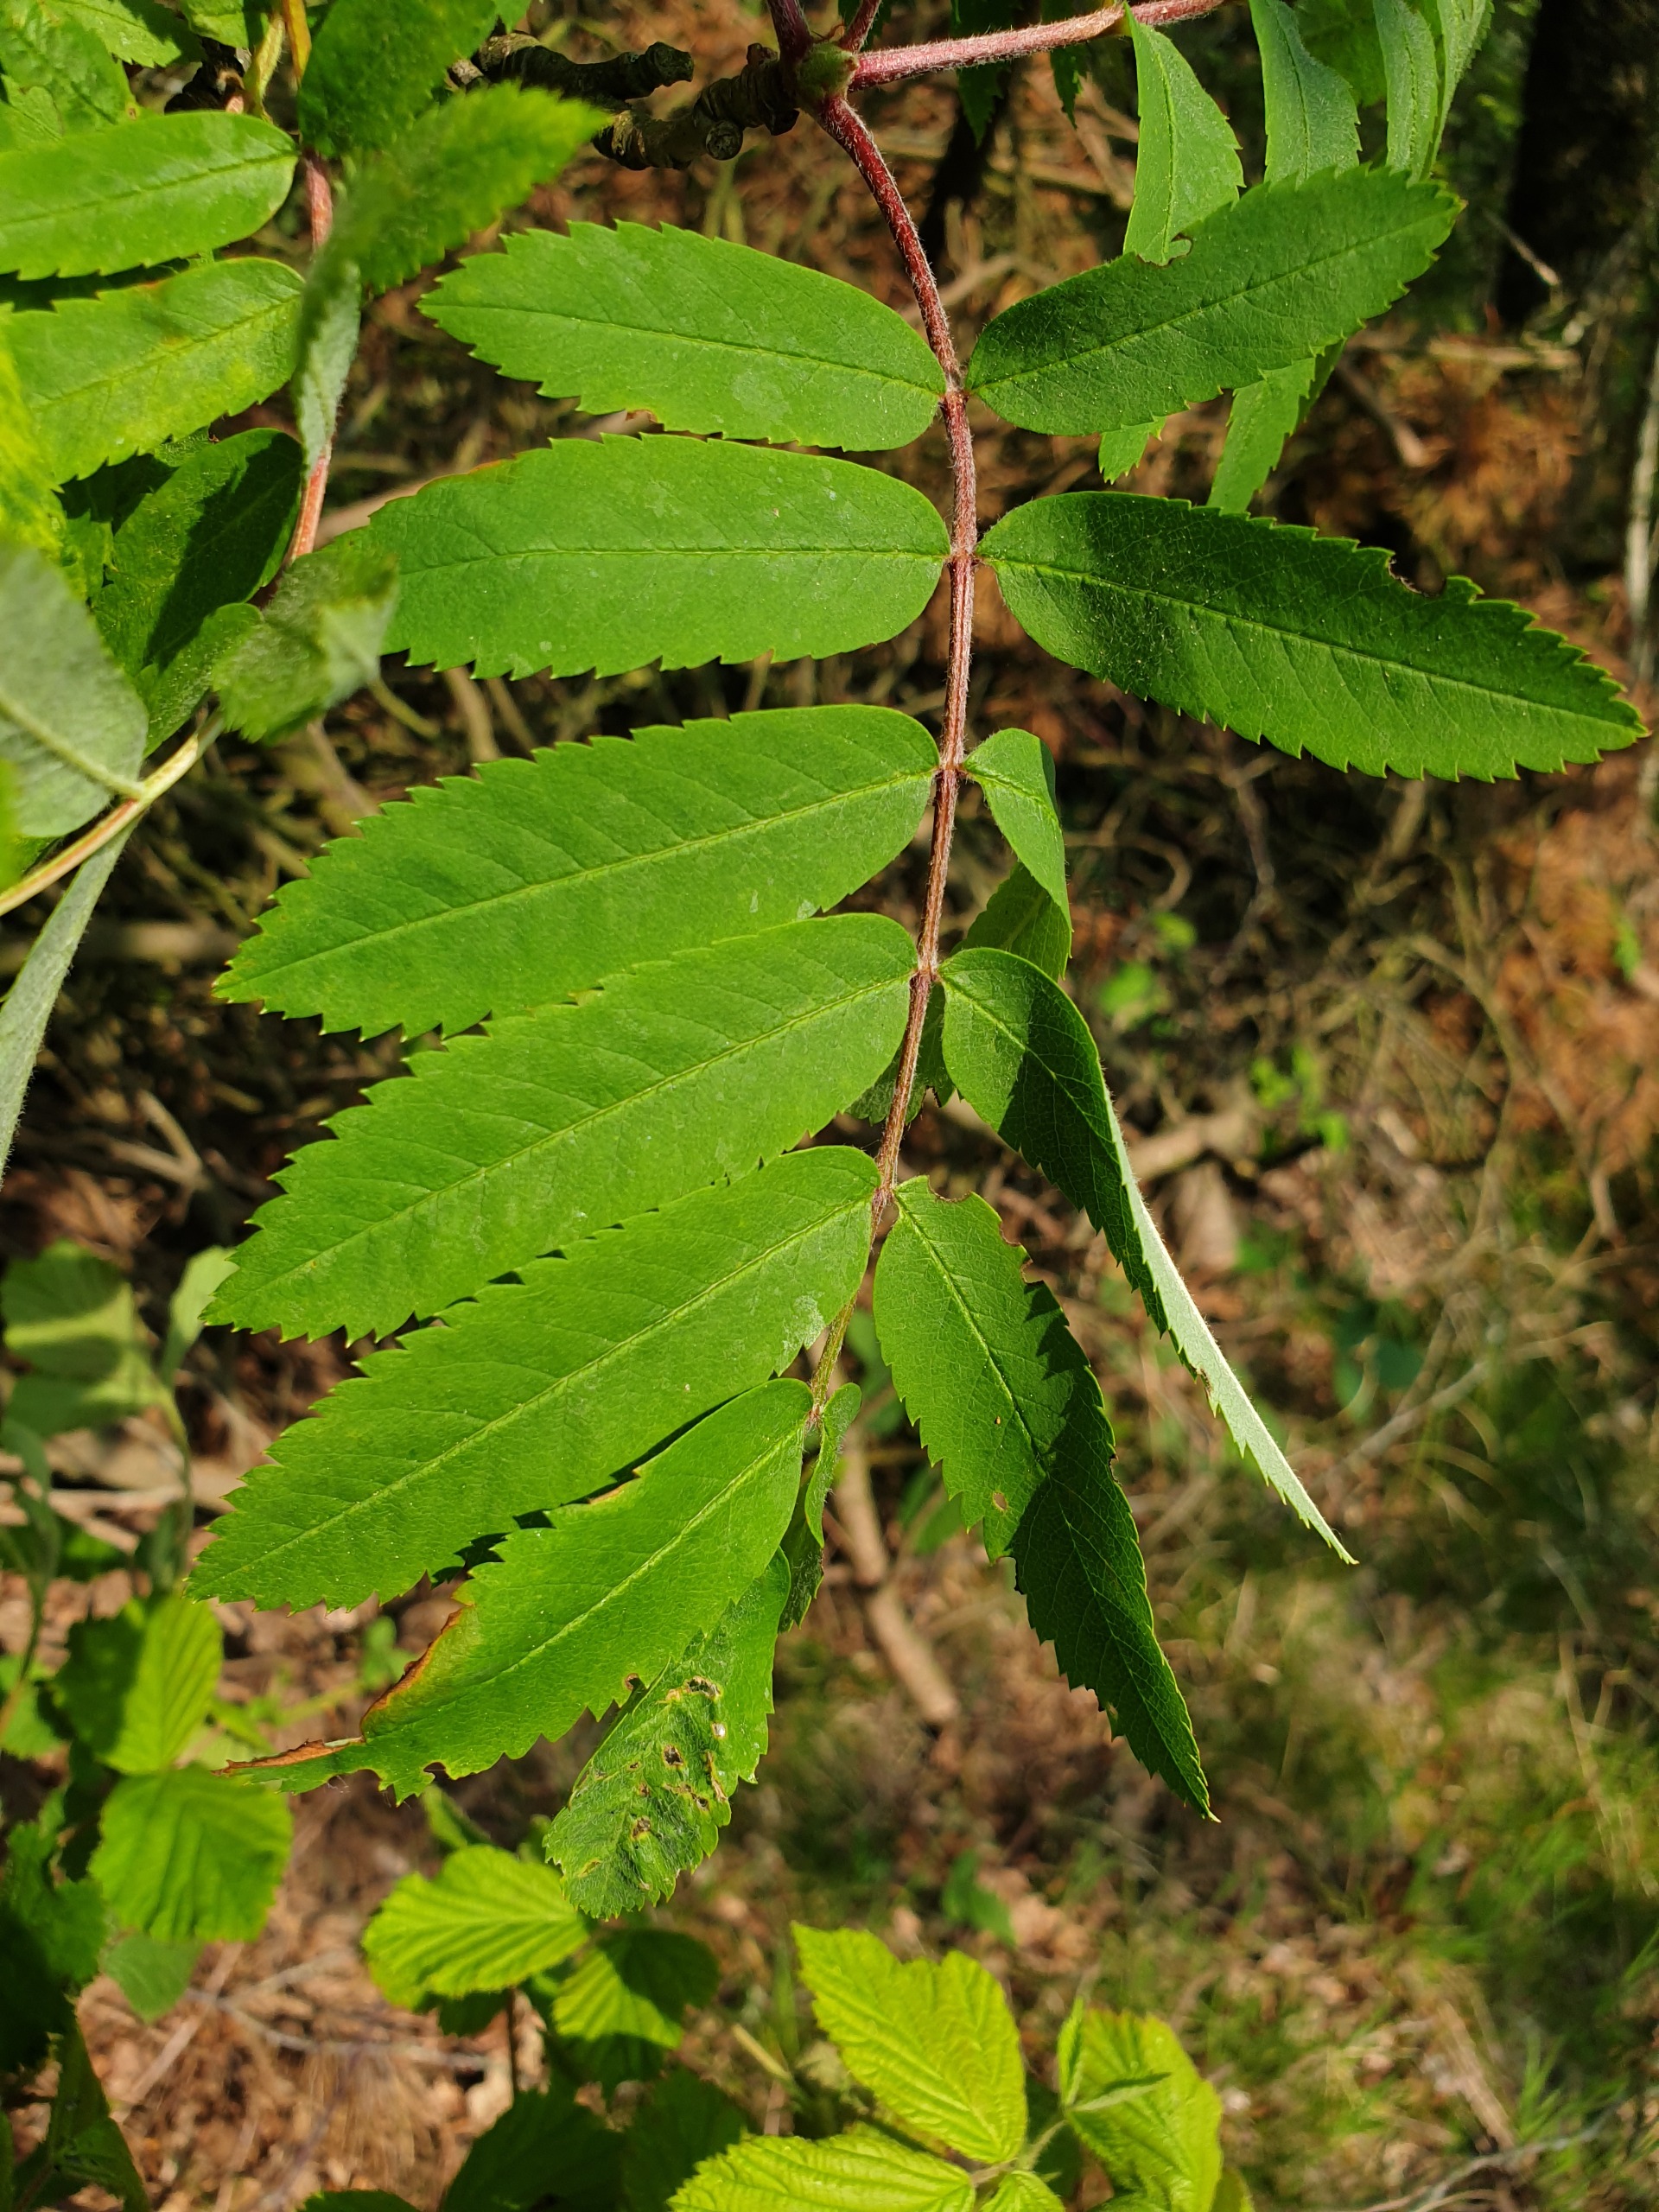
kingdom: Plantae
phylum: Tracheophyta
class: Magnoliopsida
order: Rosales
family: Rosaceae
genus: Sorbus
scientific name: Sorbus aucuparia
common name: Almindelig røn
